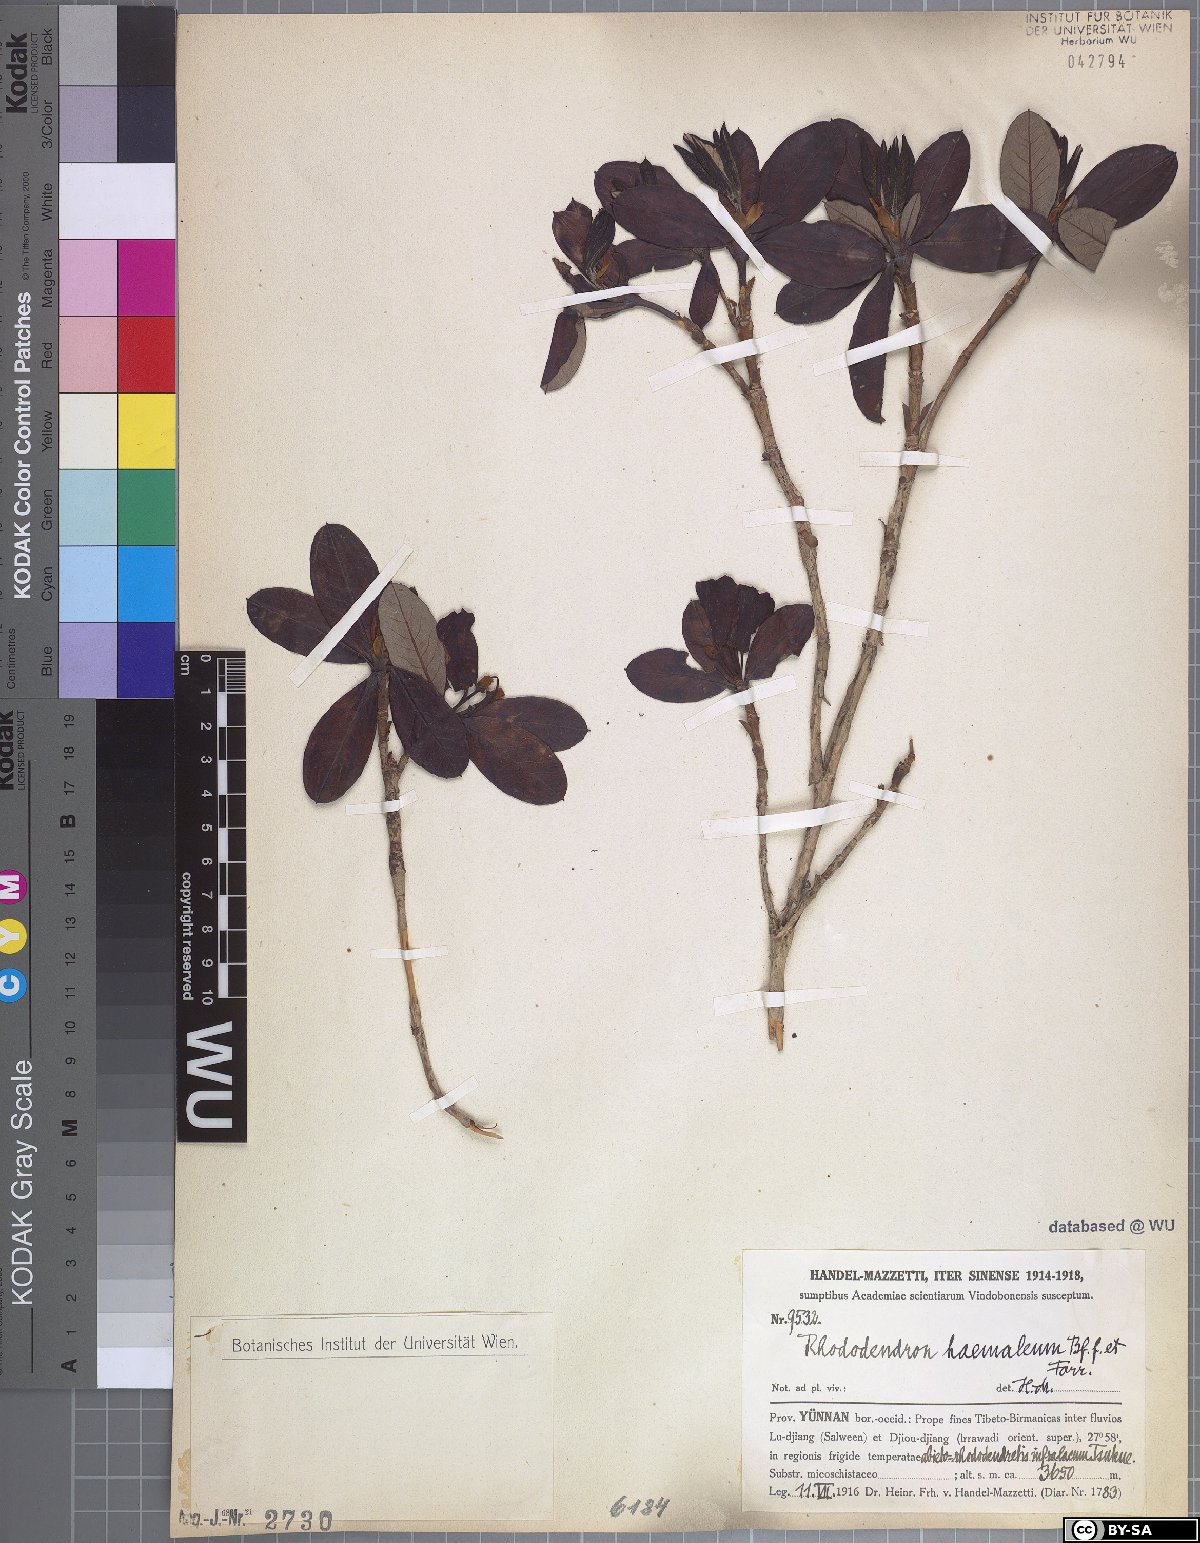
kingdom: Plantae
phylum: Tracheophyta
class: Magnoliopsida
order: Ericales
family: Ericaceae
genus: Rhododendron
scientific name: Rhododendron sanguineum
